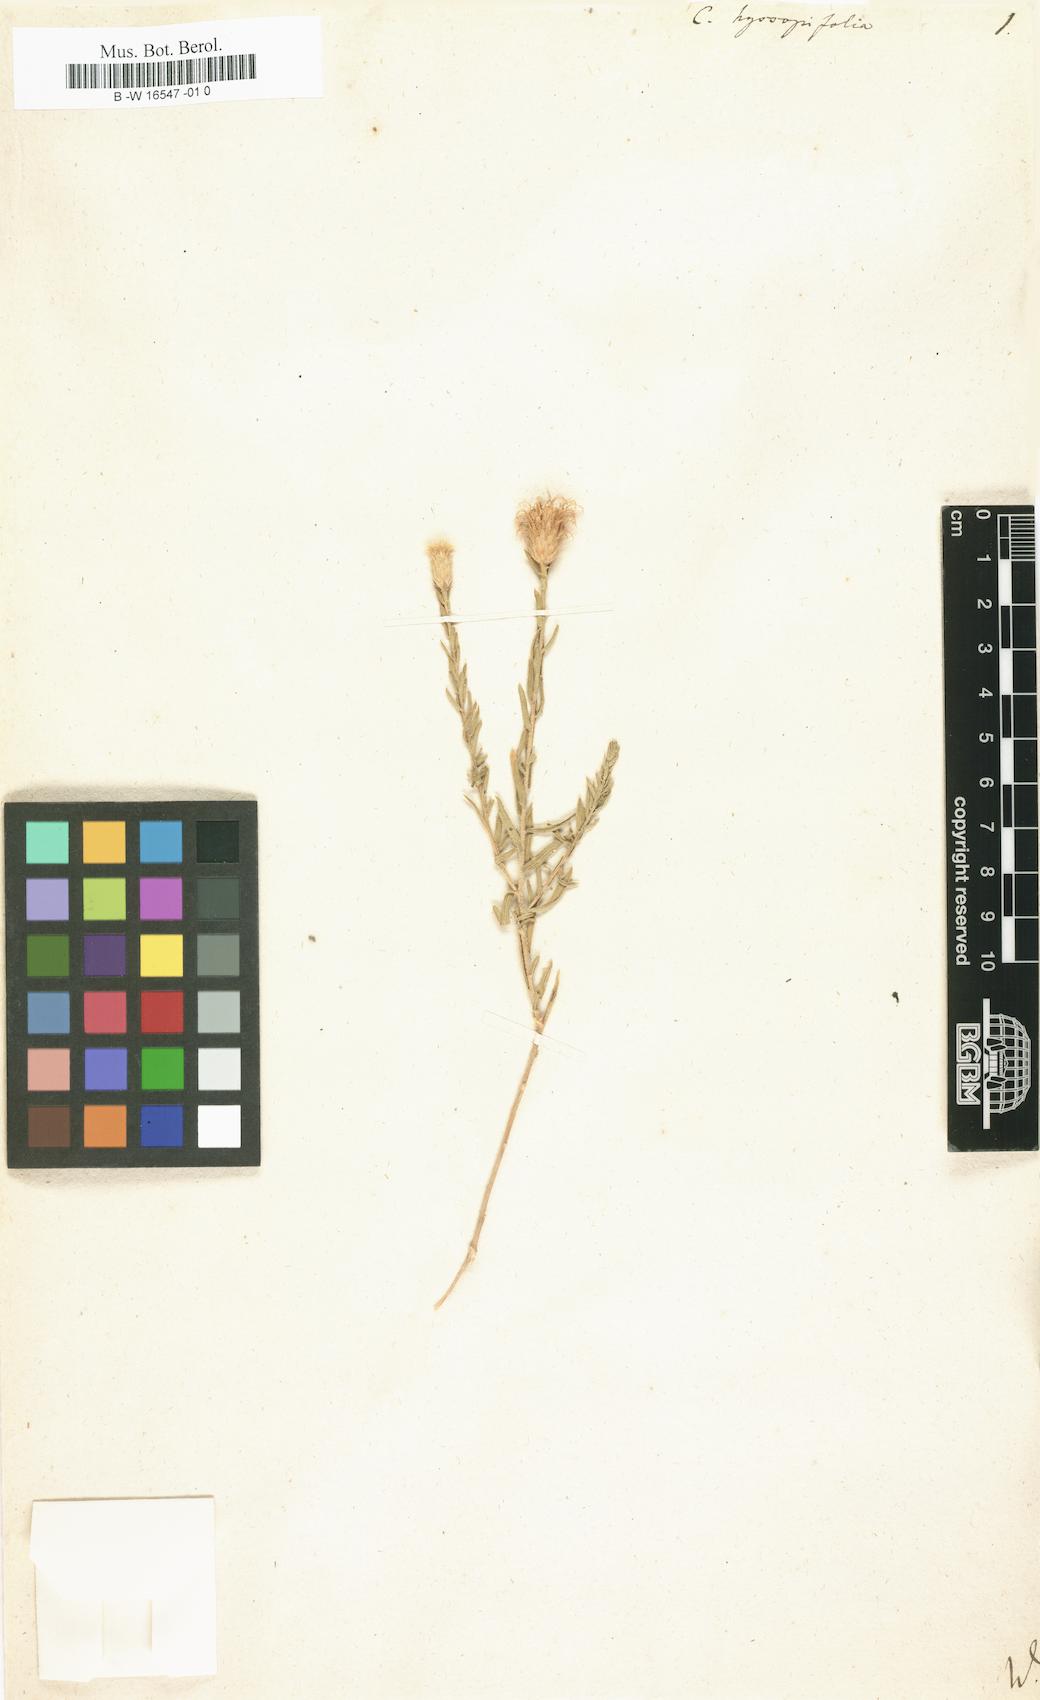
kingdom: Plantae
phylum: Tracheophyta
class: Magnoliopsida
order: Asterales
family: Asteraceae
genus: Centaurea
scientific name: Centaurea hyssopifolia
